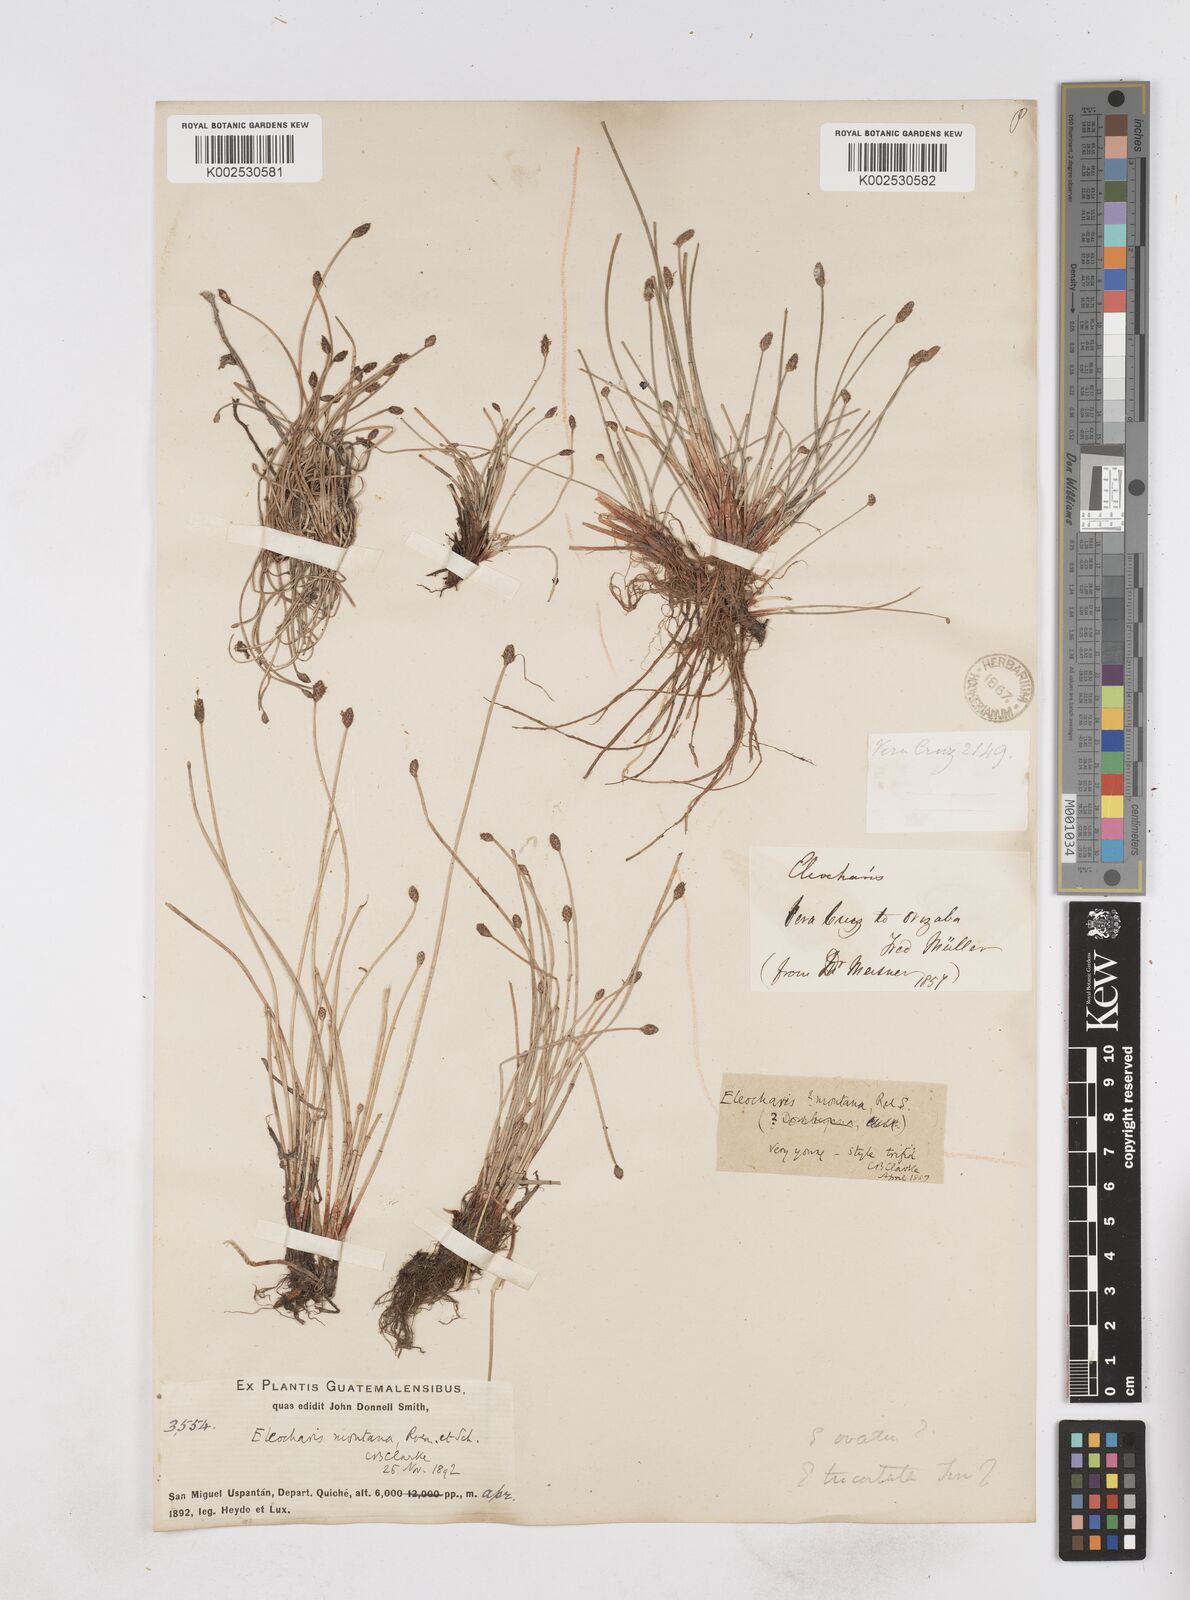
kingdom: Plantae
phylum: Tracheophyta
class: Liliopsida
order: Poales
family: Cyperaceae
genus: Eleocharis
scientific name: Eleocharis montana
